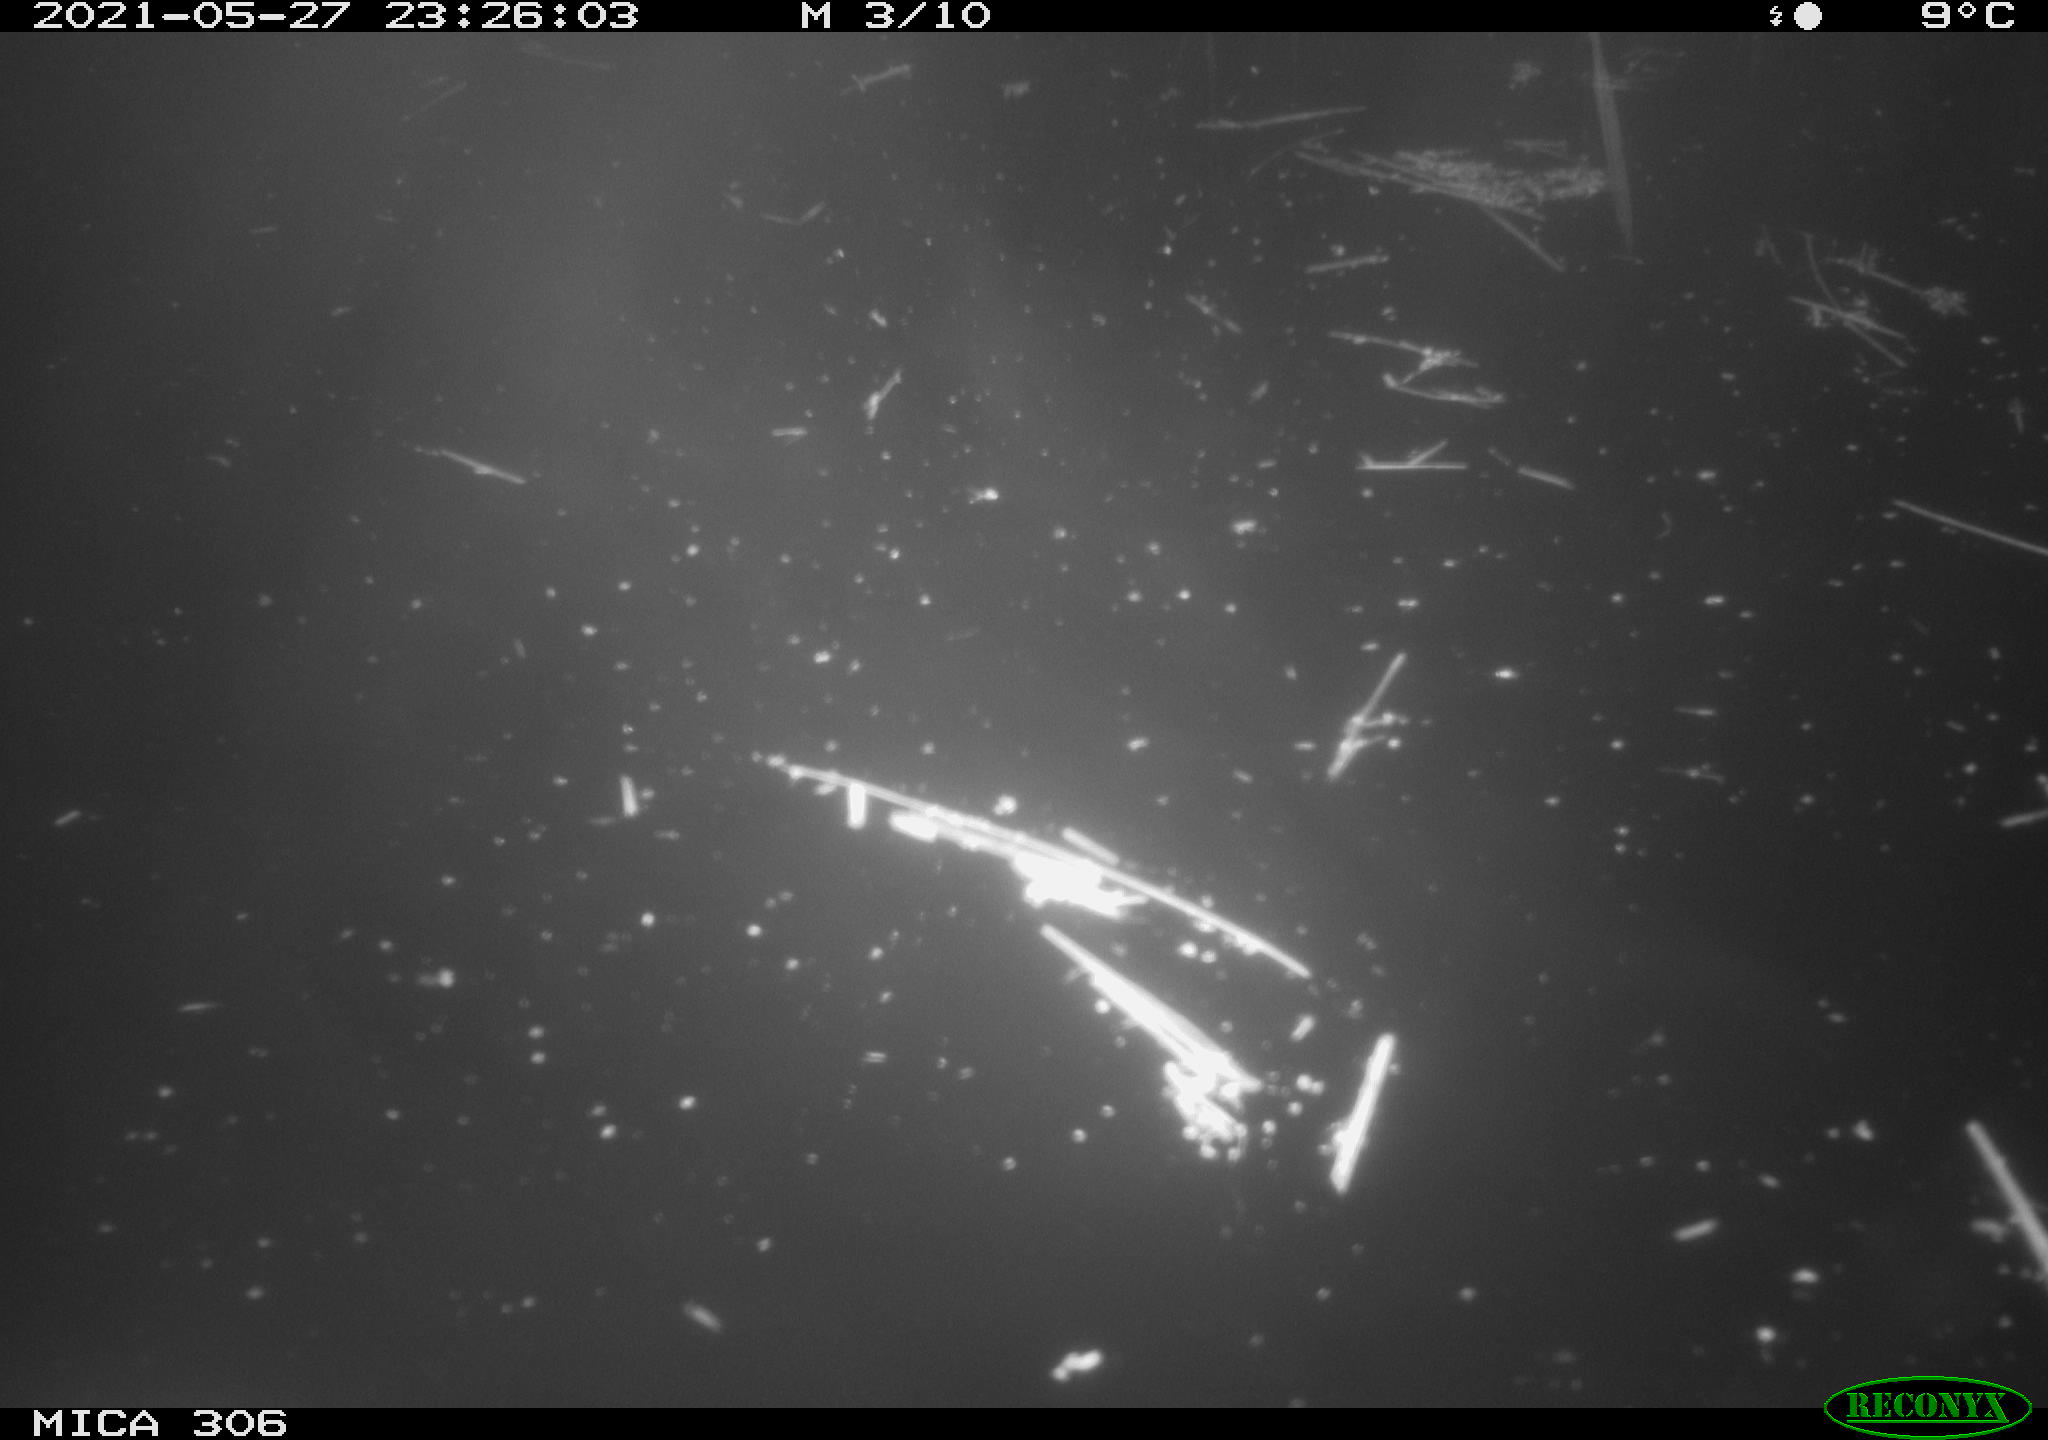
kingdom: Animalia
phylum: Chordata
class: Aves
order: Anseriformes
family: Anatidae
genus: Anas
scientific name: Anas platyrhynchos
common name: Mallard
